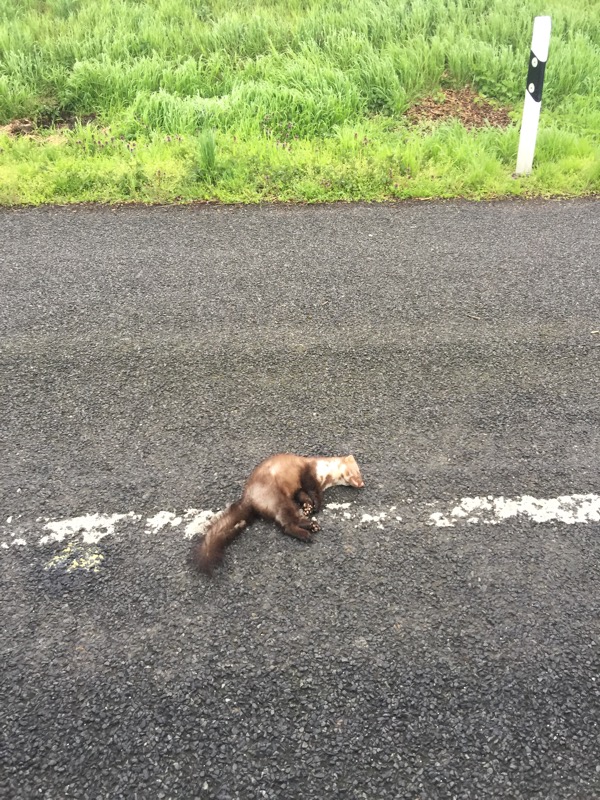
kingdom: Animalia
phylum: Chordata
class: Mammalia
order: Carnivora
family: Mustelidae
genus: Martes
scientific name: Martes foina
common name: Beech marten
